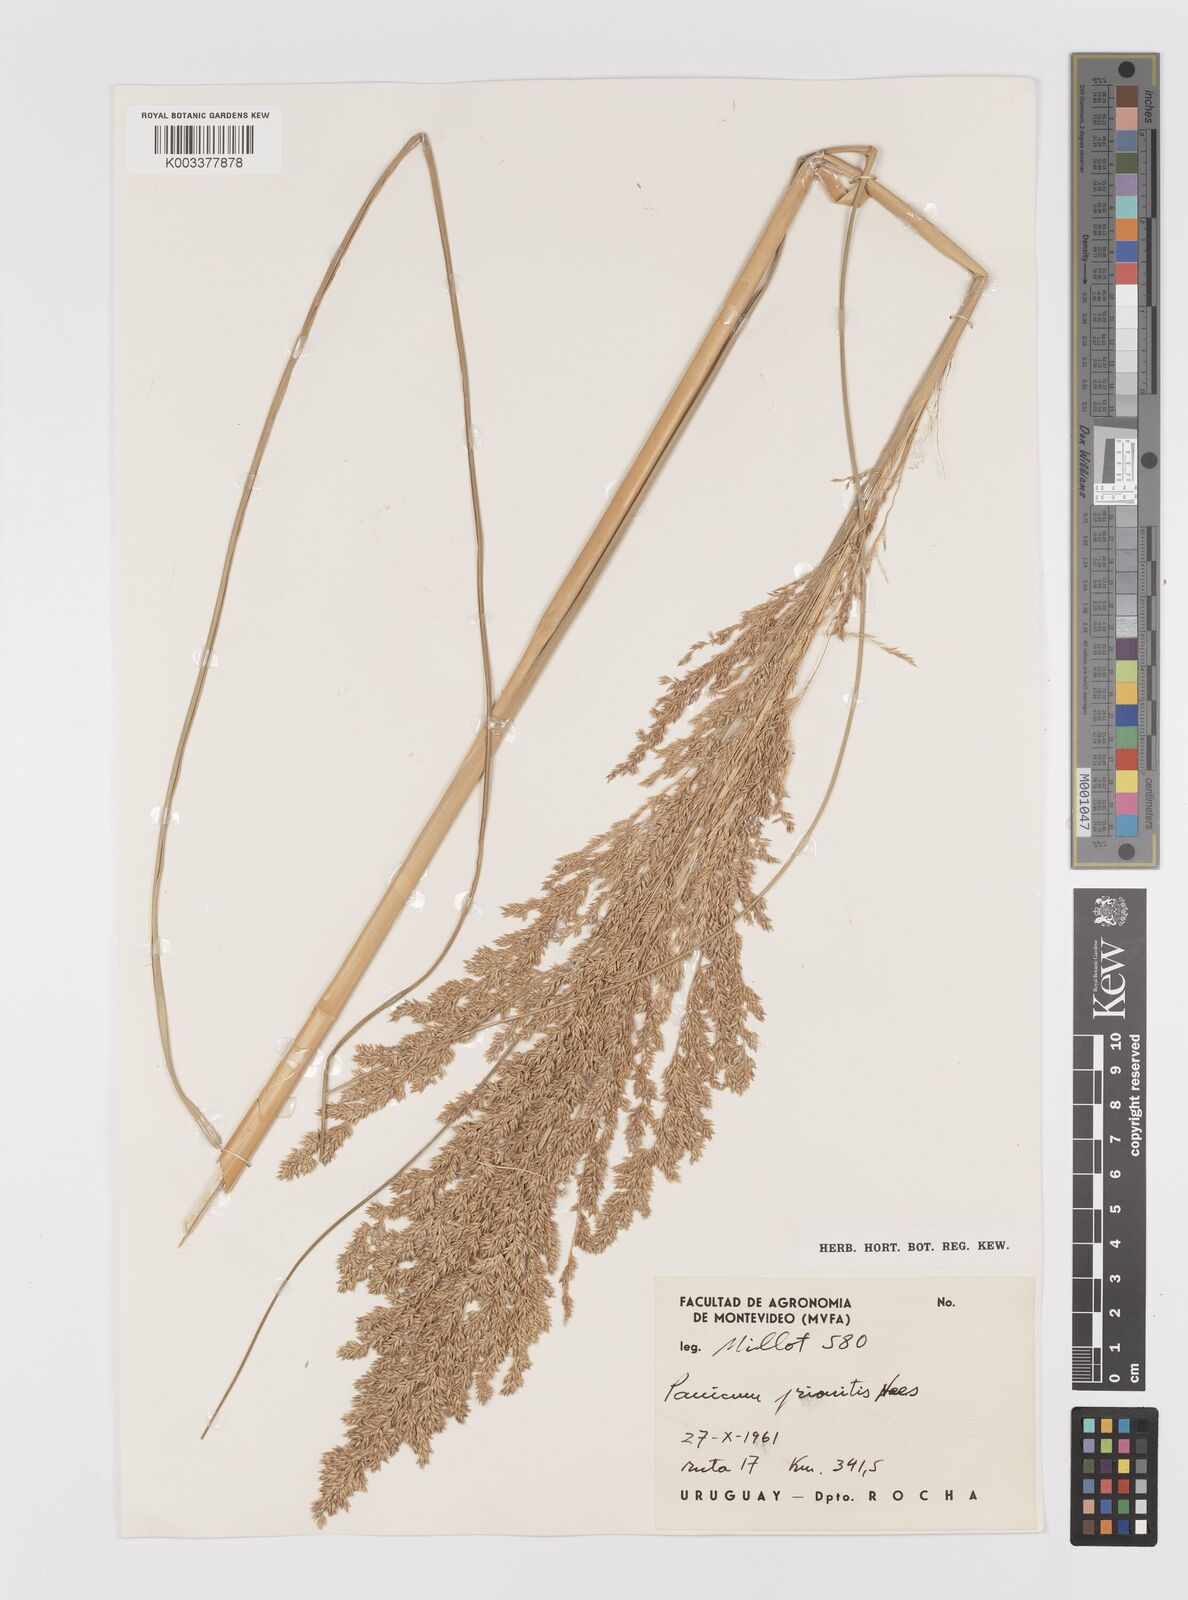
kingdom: Plantae
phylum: Tracheophyta
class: Liliopsida
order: Poales
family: Poaceae
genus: Coleataenia
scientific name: Coleataenia prionitis
